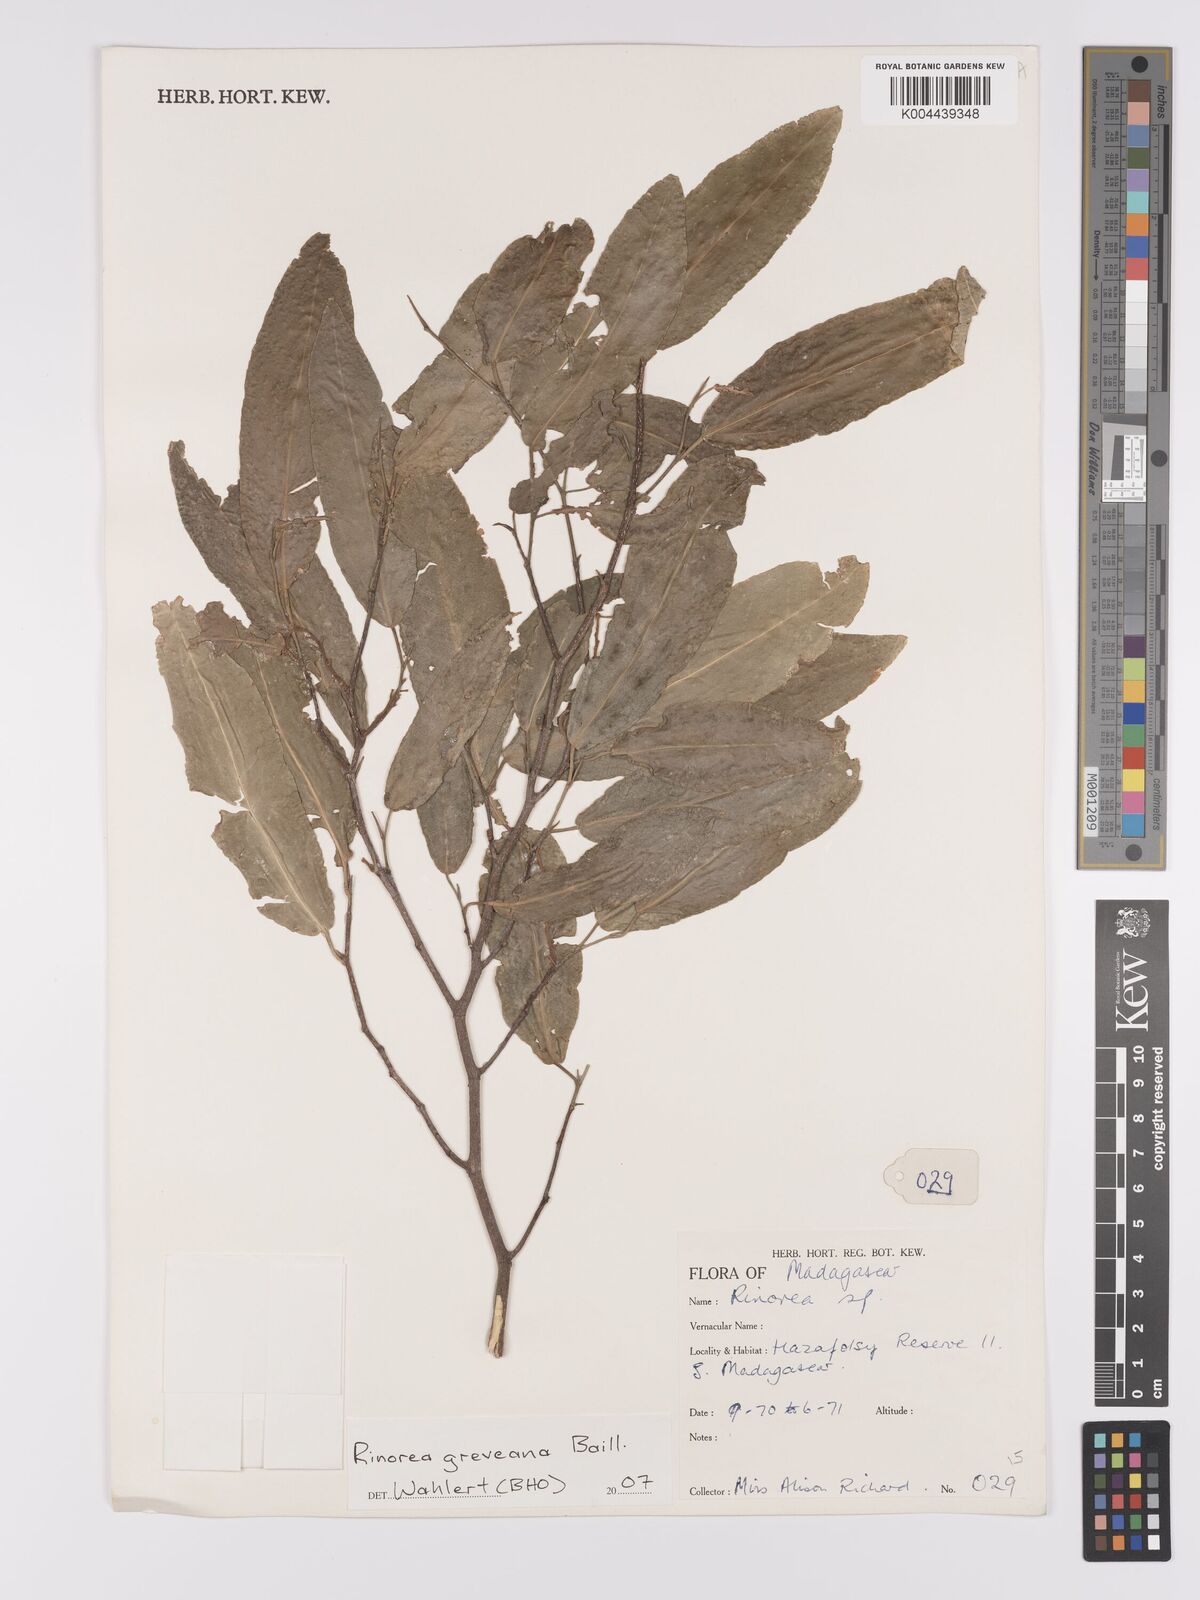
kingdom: Plantae
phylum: Tracheophyta
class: Magnoliopsida
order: Malpighiales
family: Violaceae
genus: Rinorea
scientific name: Rinorea greveana
